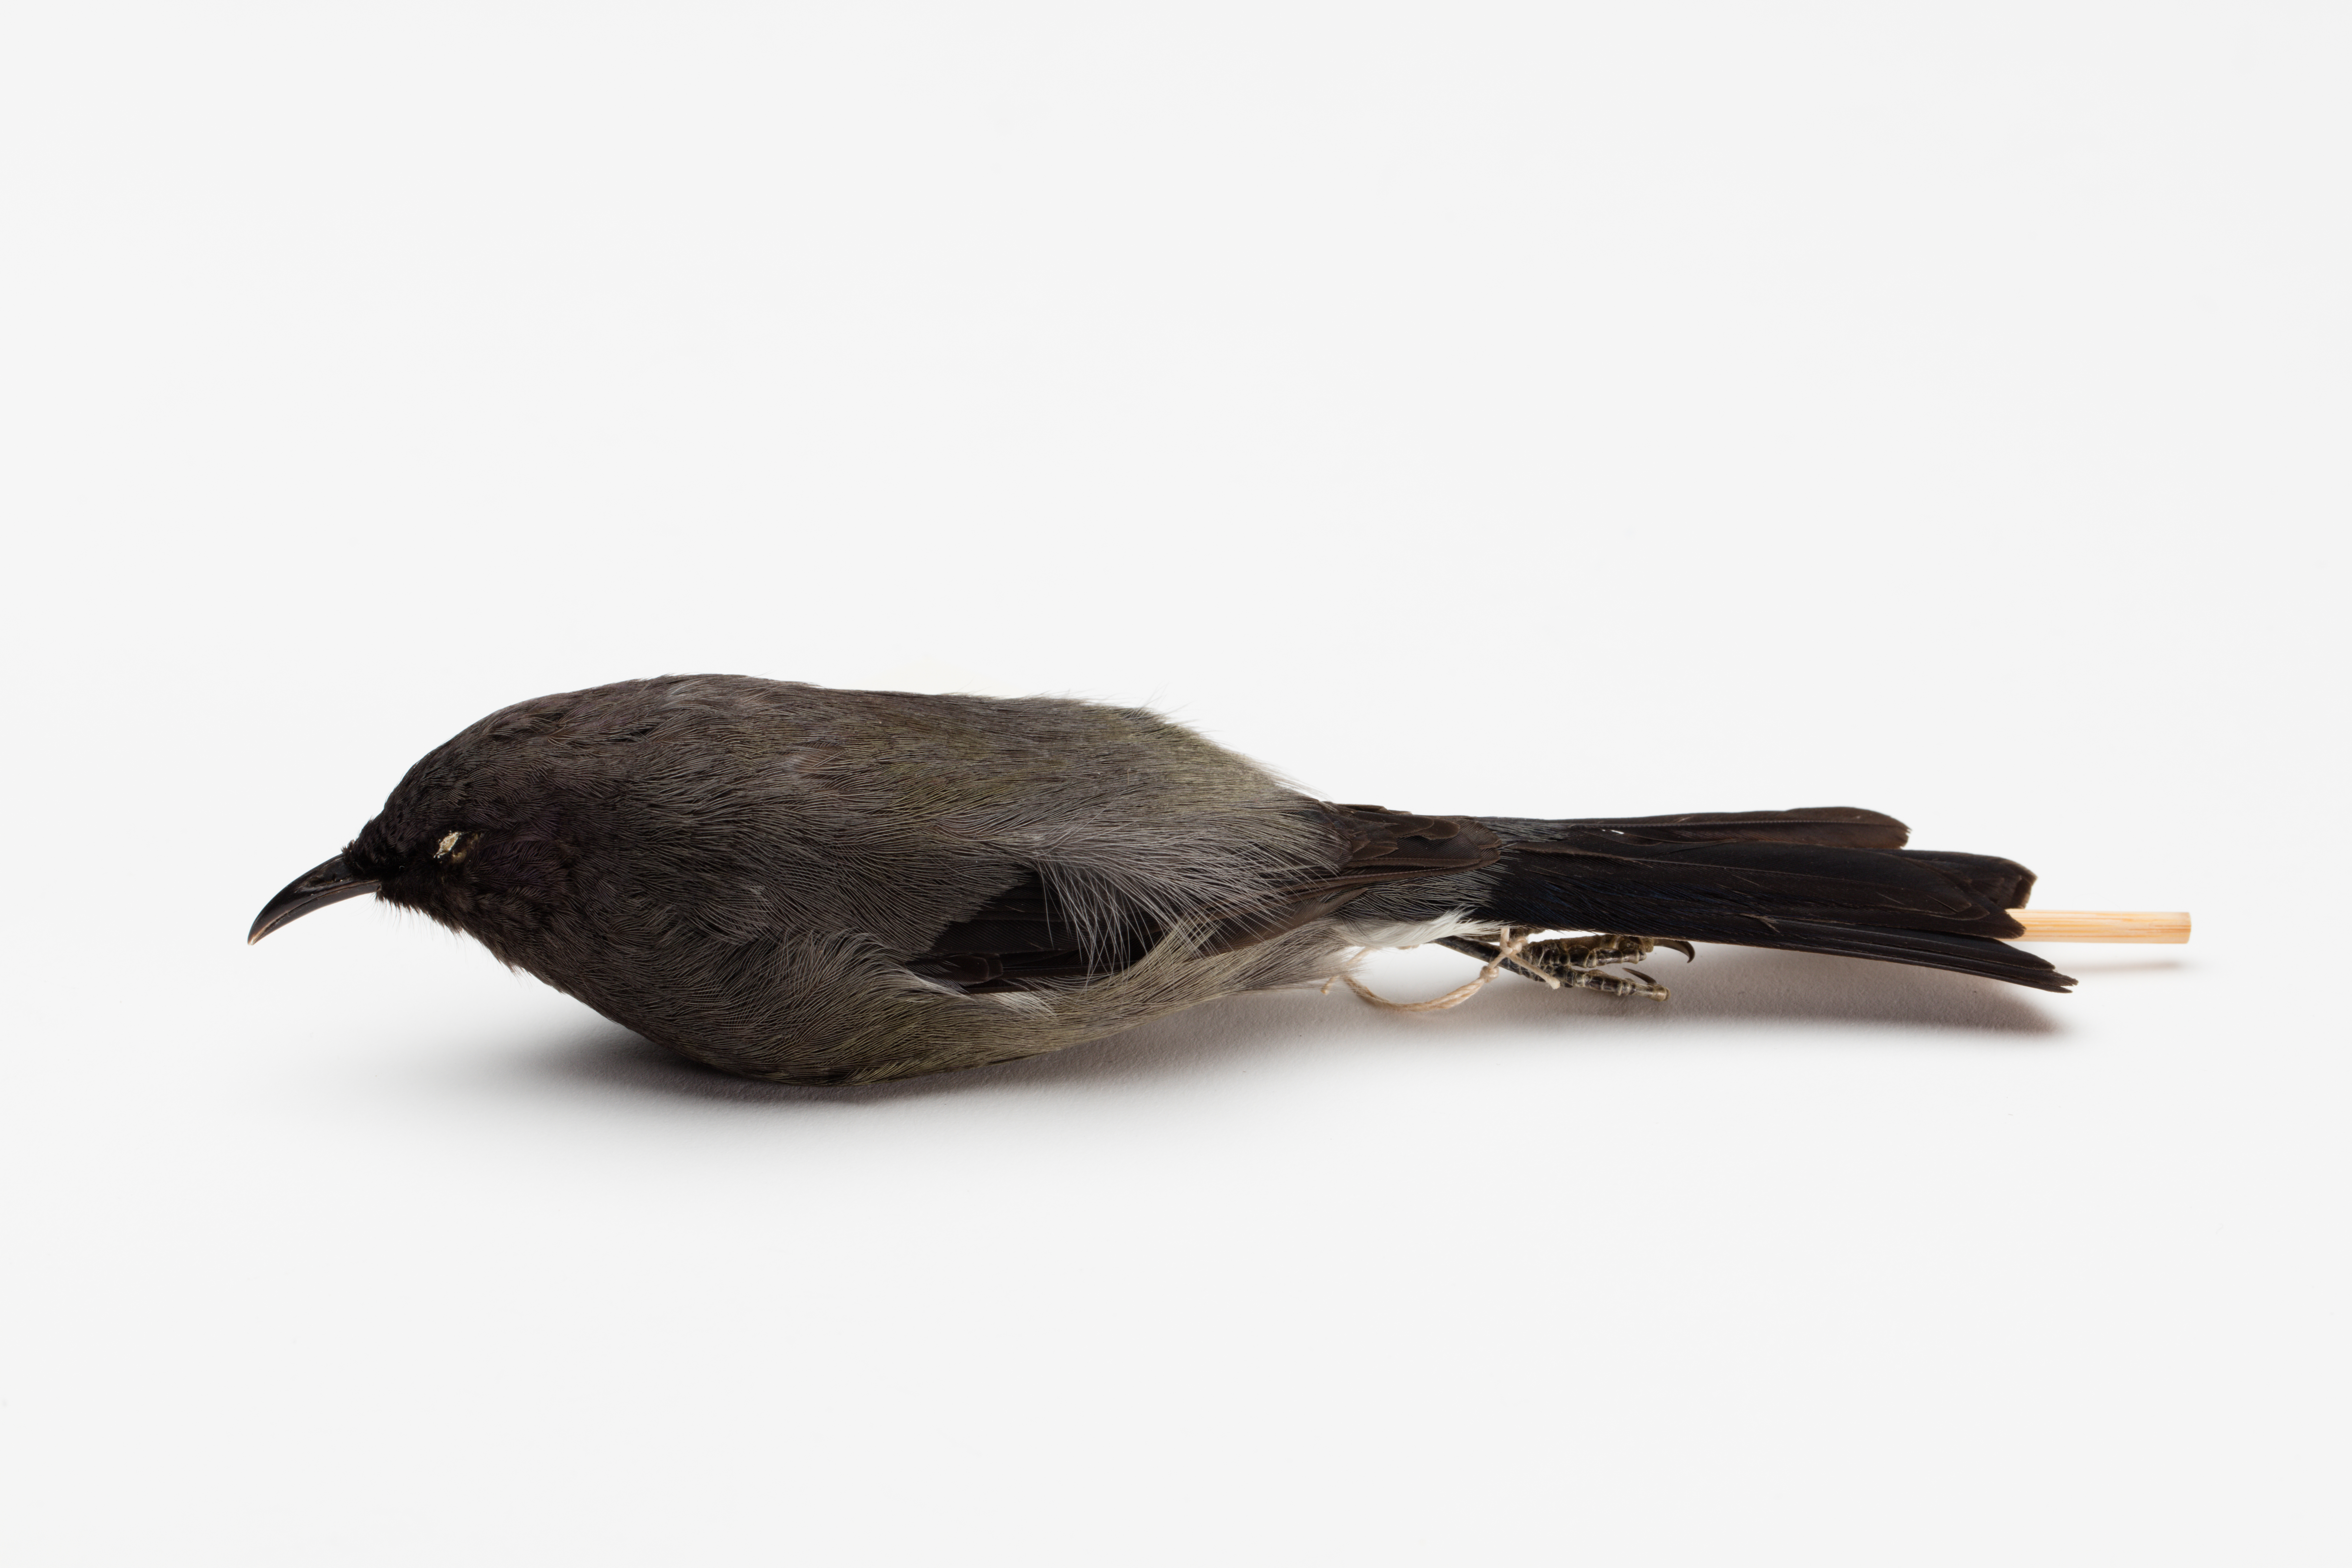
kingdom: Animalia
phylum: Chordata
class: Aves
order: Passeriformes
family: Meliphagidae
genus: Anthornis
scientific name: Anthornis melanura
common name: New zealand bellbird
